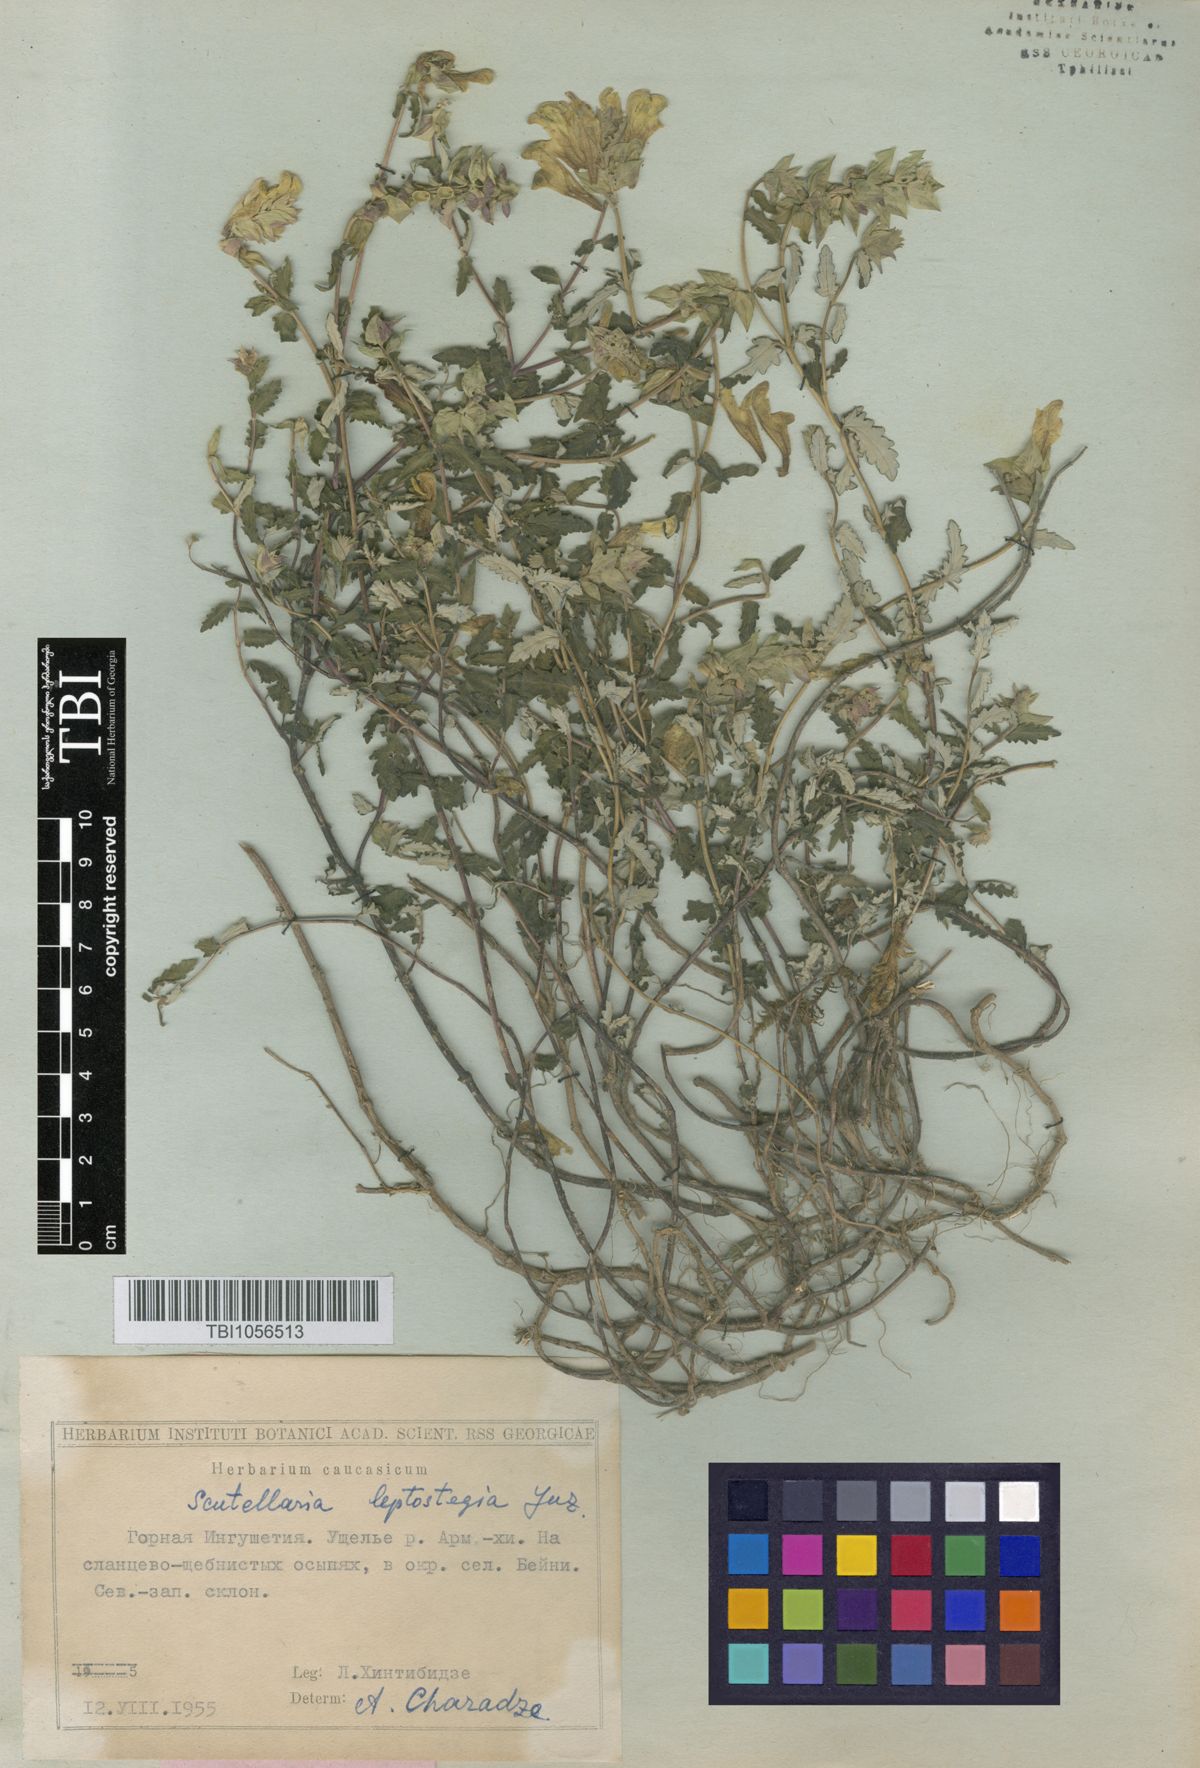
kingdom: Plantae
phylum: Tracheophyta
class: Magnoliopsida
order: Lamiales
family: Lamiaceae
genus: Scutellaria
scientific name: Scutellaria leptostegia
